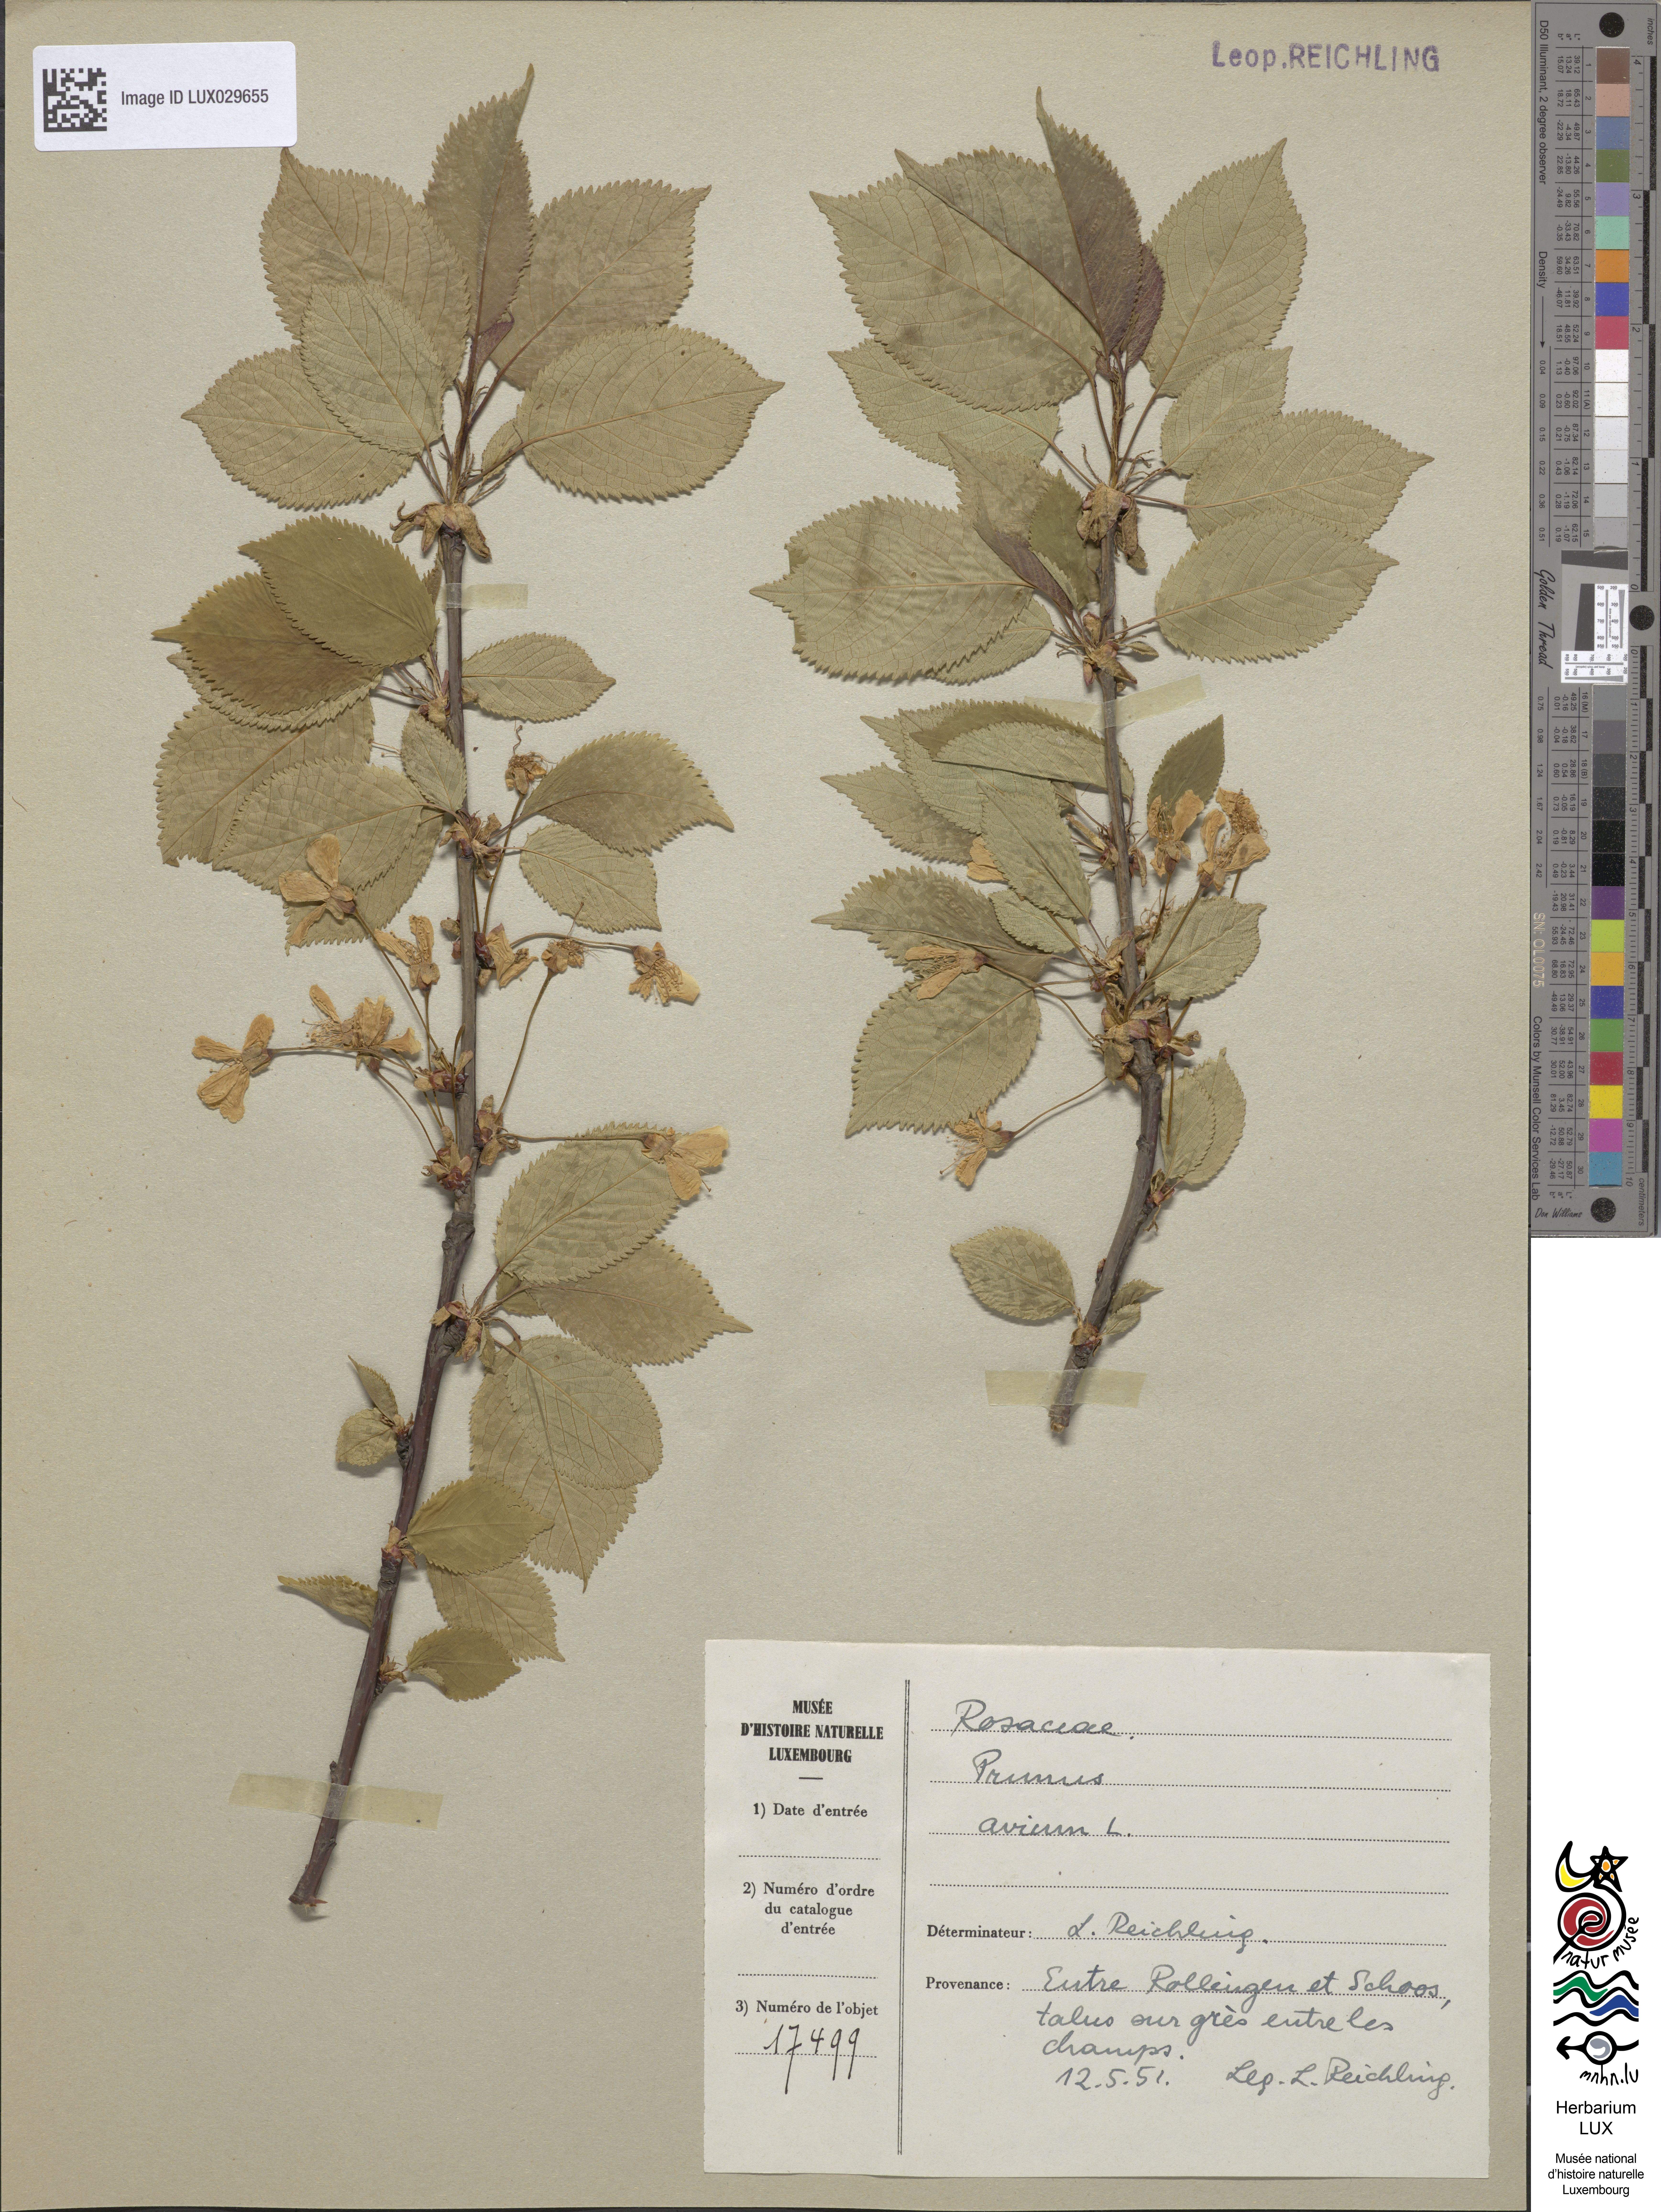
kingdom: Plantae
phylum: Tracheophyta
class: Magnoliopsida
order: Rosales
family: Rosaceae
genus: Prunus
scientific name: Prunus avium
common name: Sweet cherry
